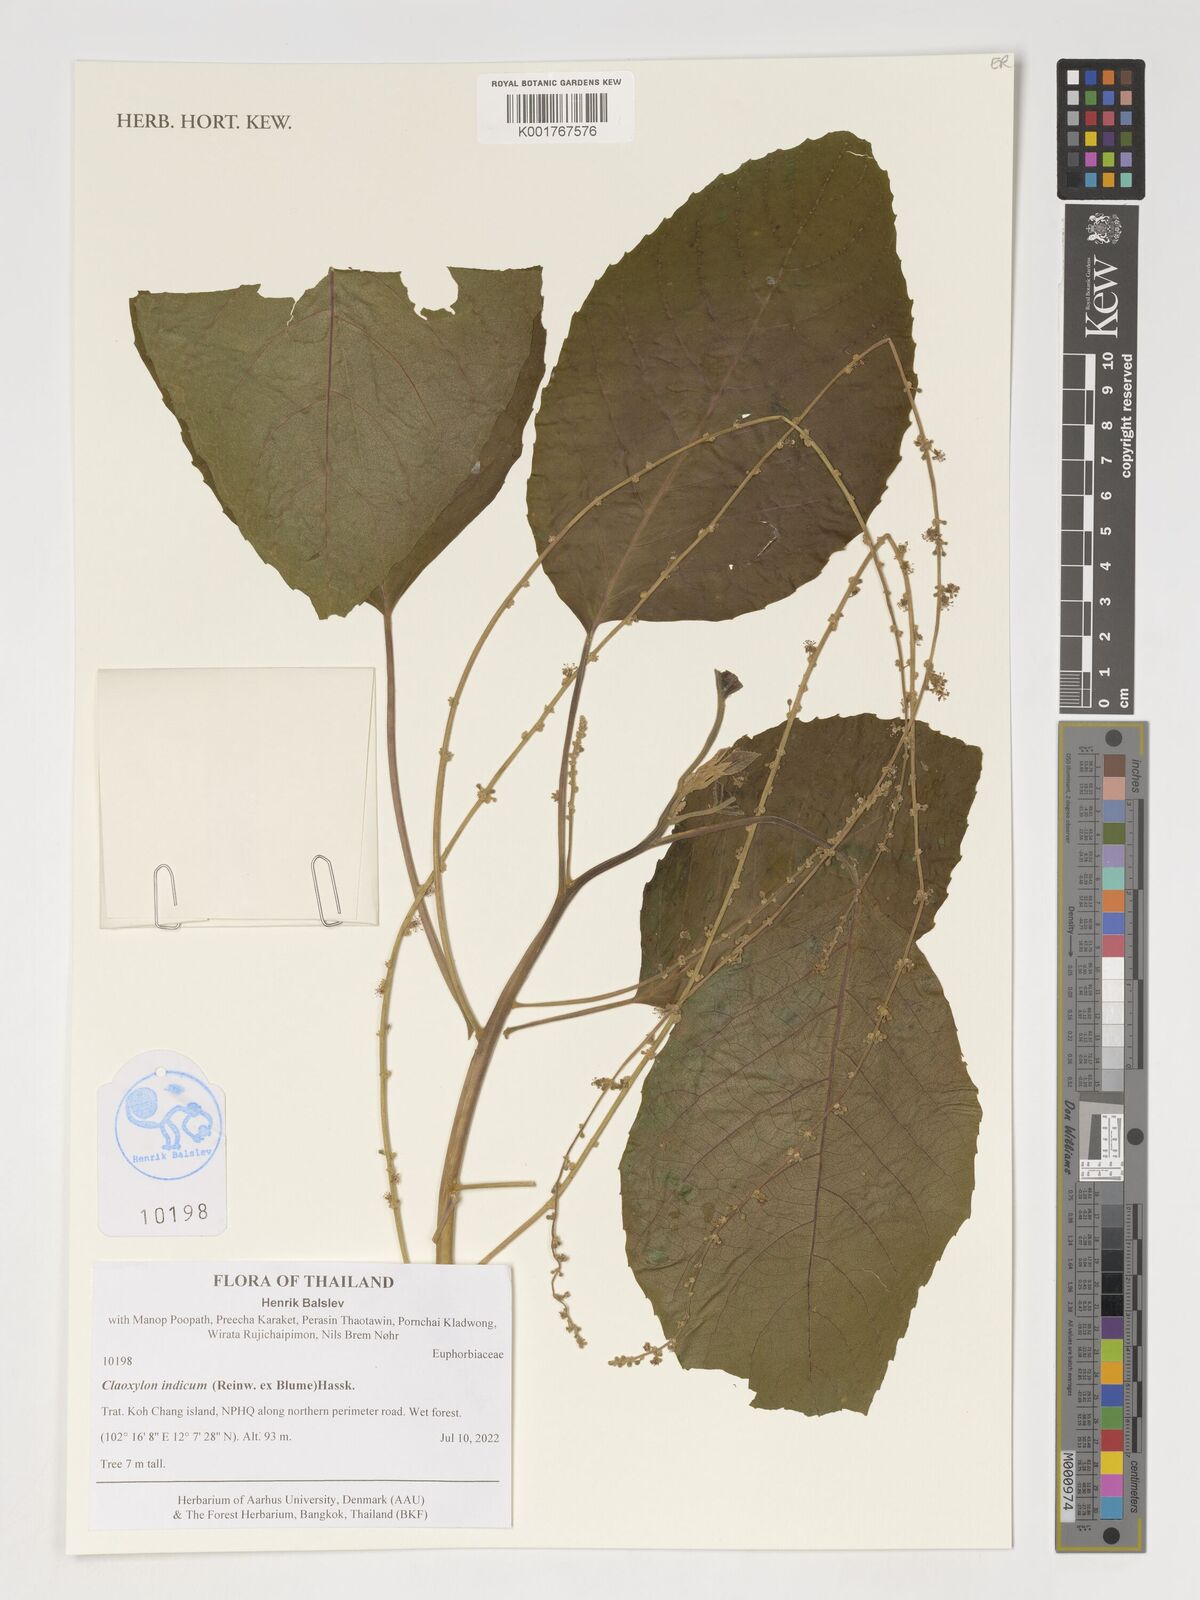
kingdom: Plantae
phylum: Tracheophyta
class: Magnoliopsida
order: Malpighiales
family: Euphorbiaceae
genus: Claoxylon
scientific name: Claoxylon indicum
